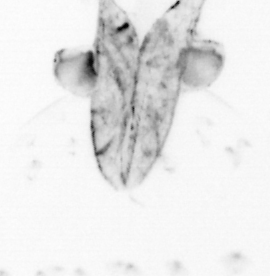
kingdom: Animalia
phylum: Chaetognatha
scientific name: Chaetognatha
